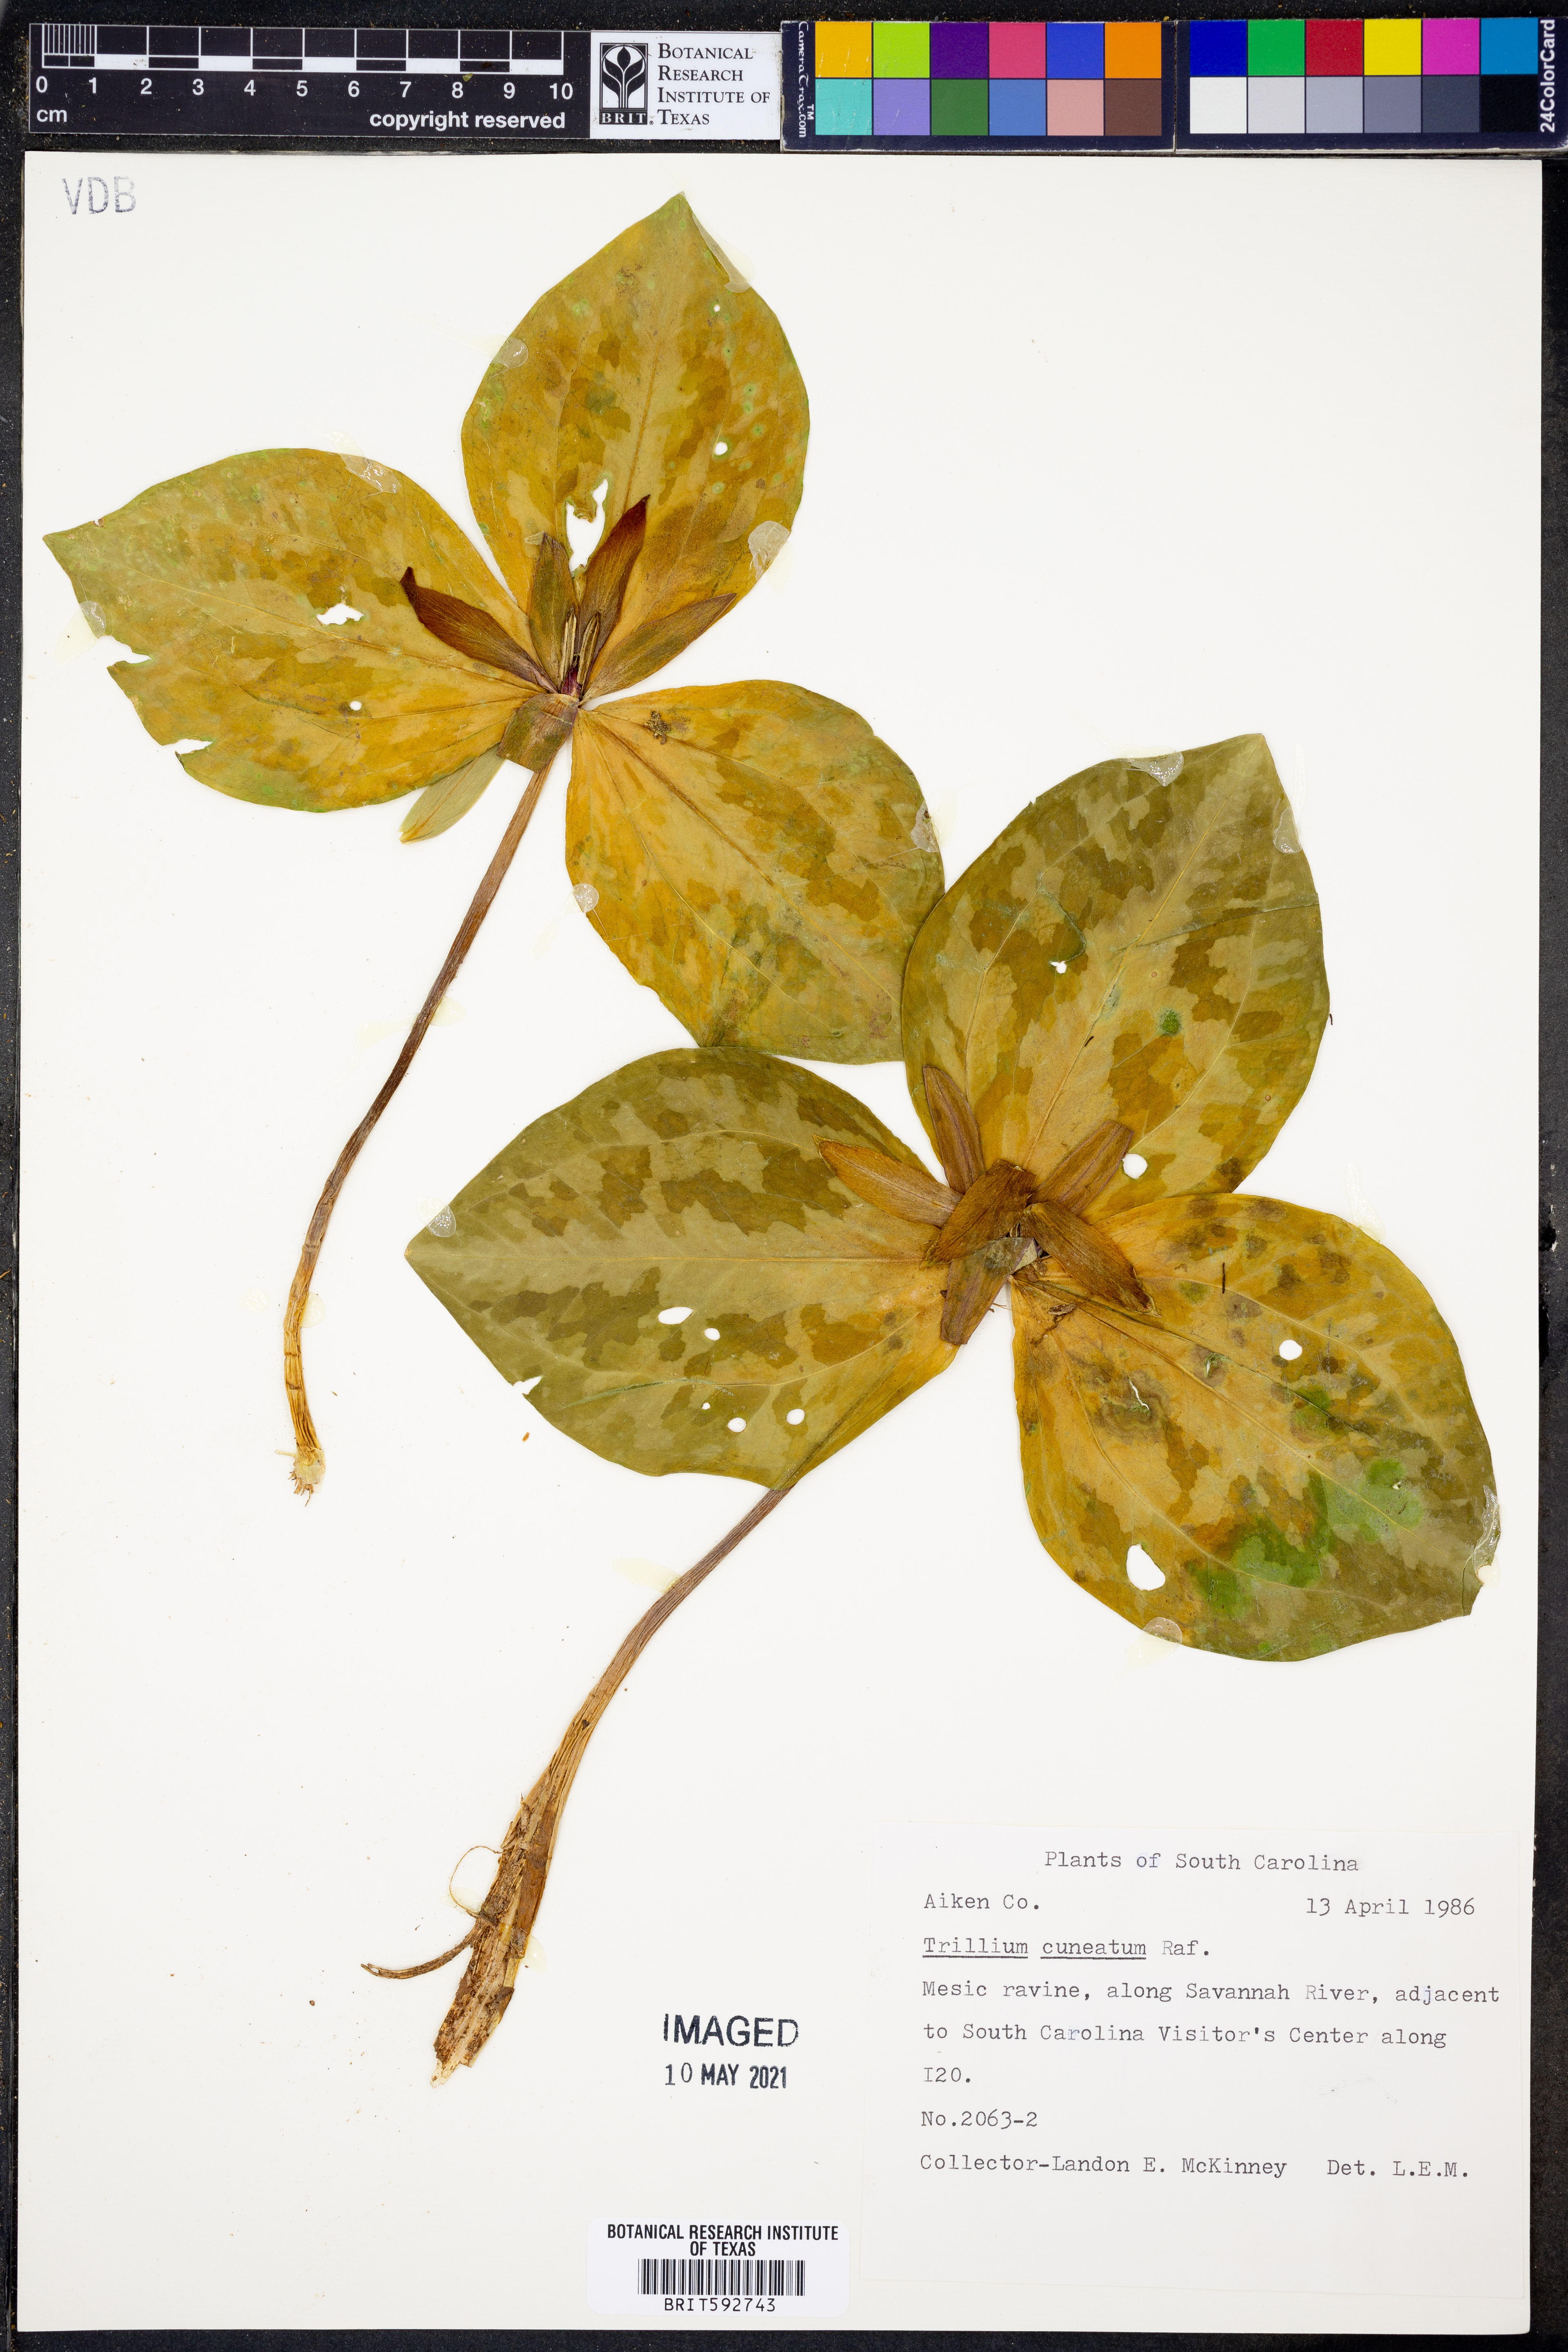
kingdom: Plantae
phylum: Tracheophyta
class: Liliopsida
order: Liliales
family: Melanthiaceae
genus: Trillium
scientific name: Trillium cuneatum
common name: Cuneate trillium
